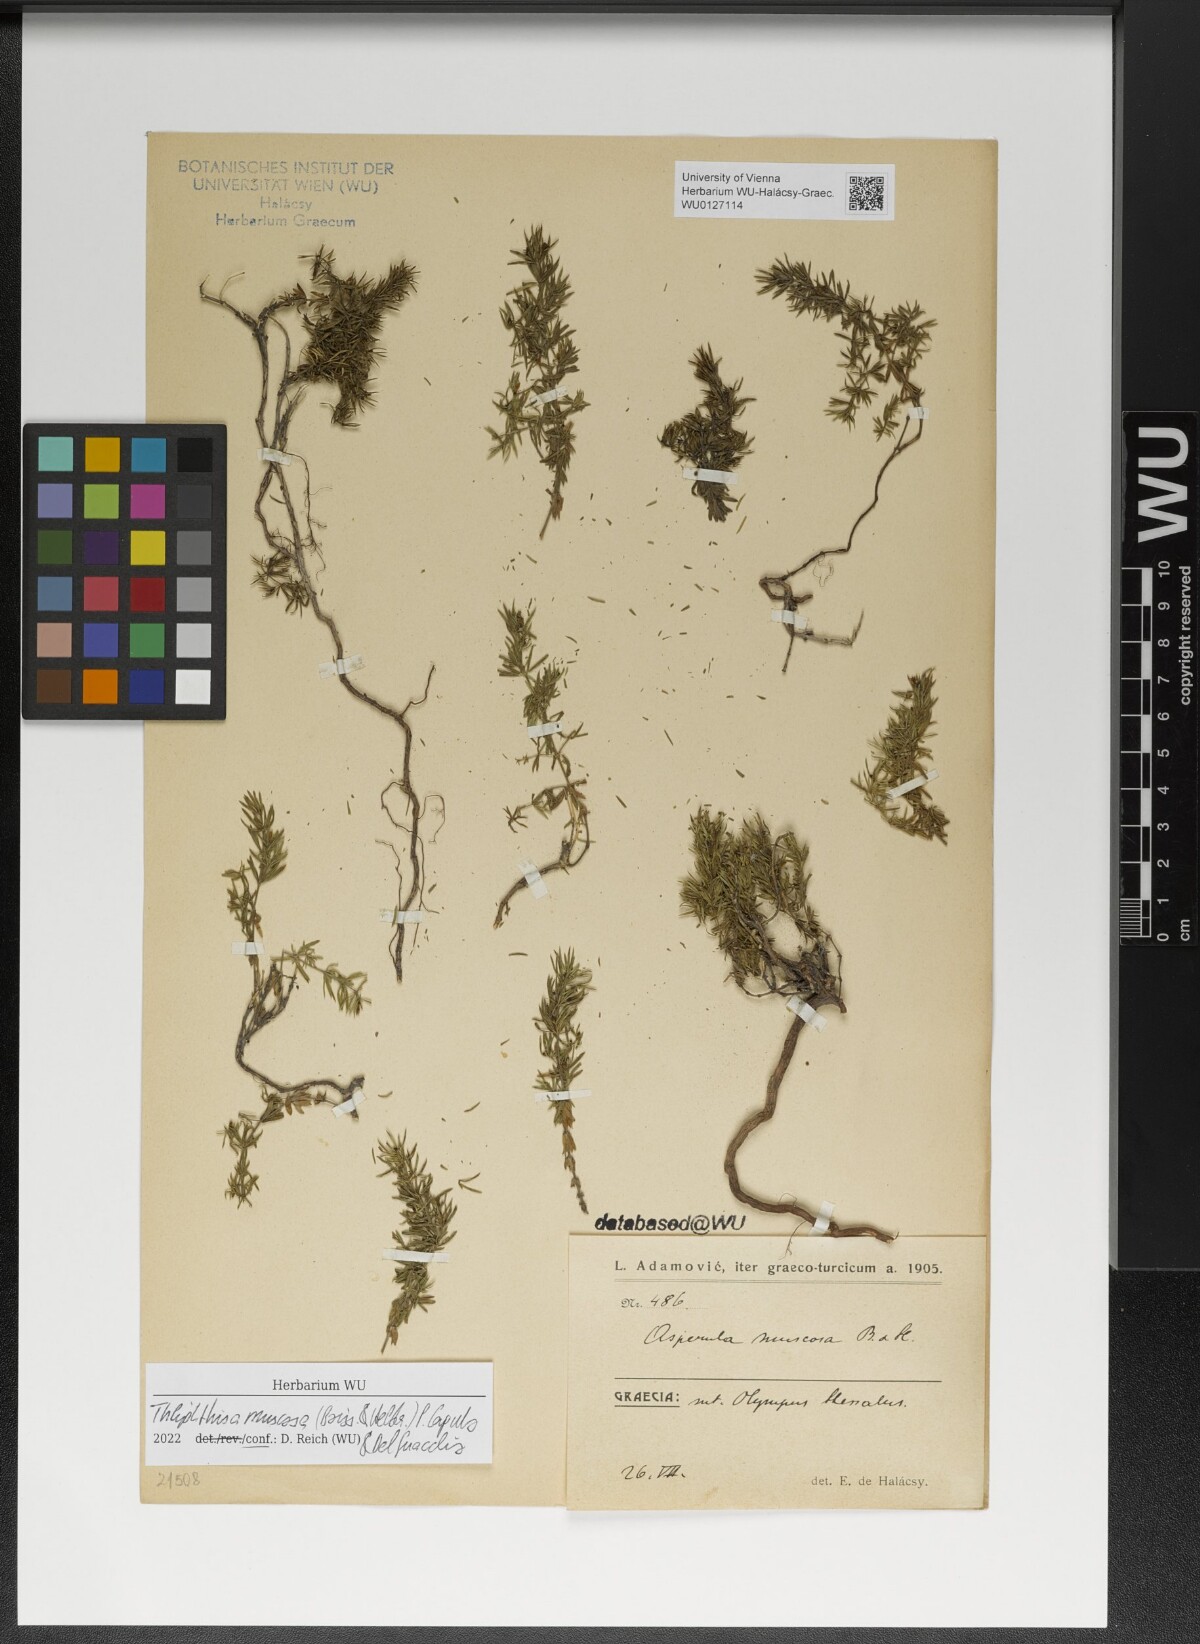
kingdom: Plantae
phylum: Tracheophyta
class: Magnoliopsida
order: Gentianales
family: Rubiaceae
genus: Thliphthisa
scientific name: Thliphthisa muscosa
